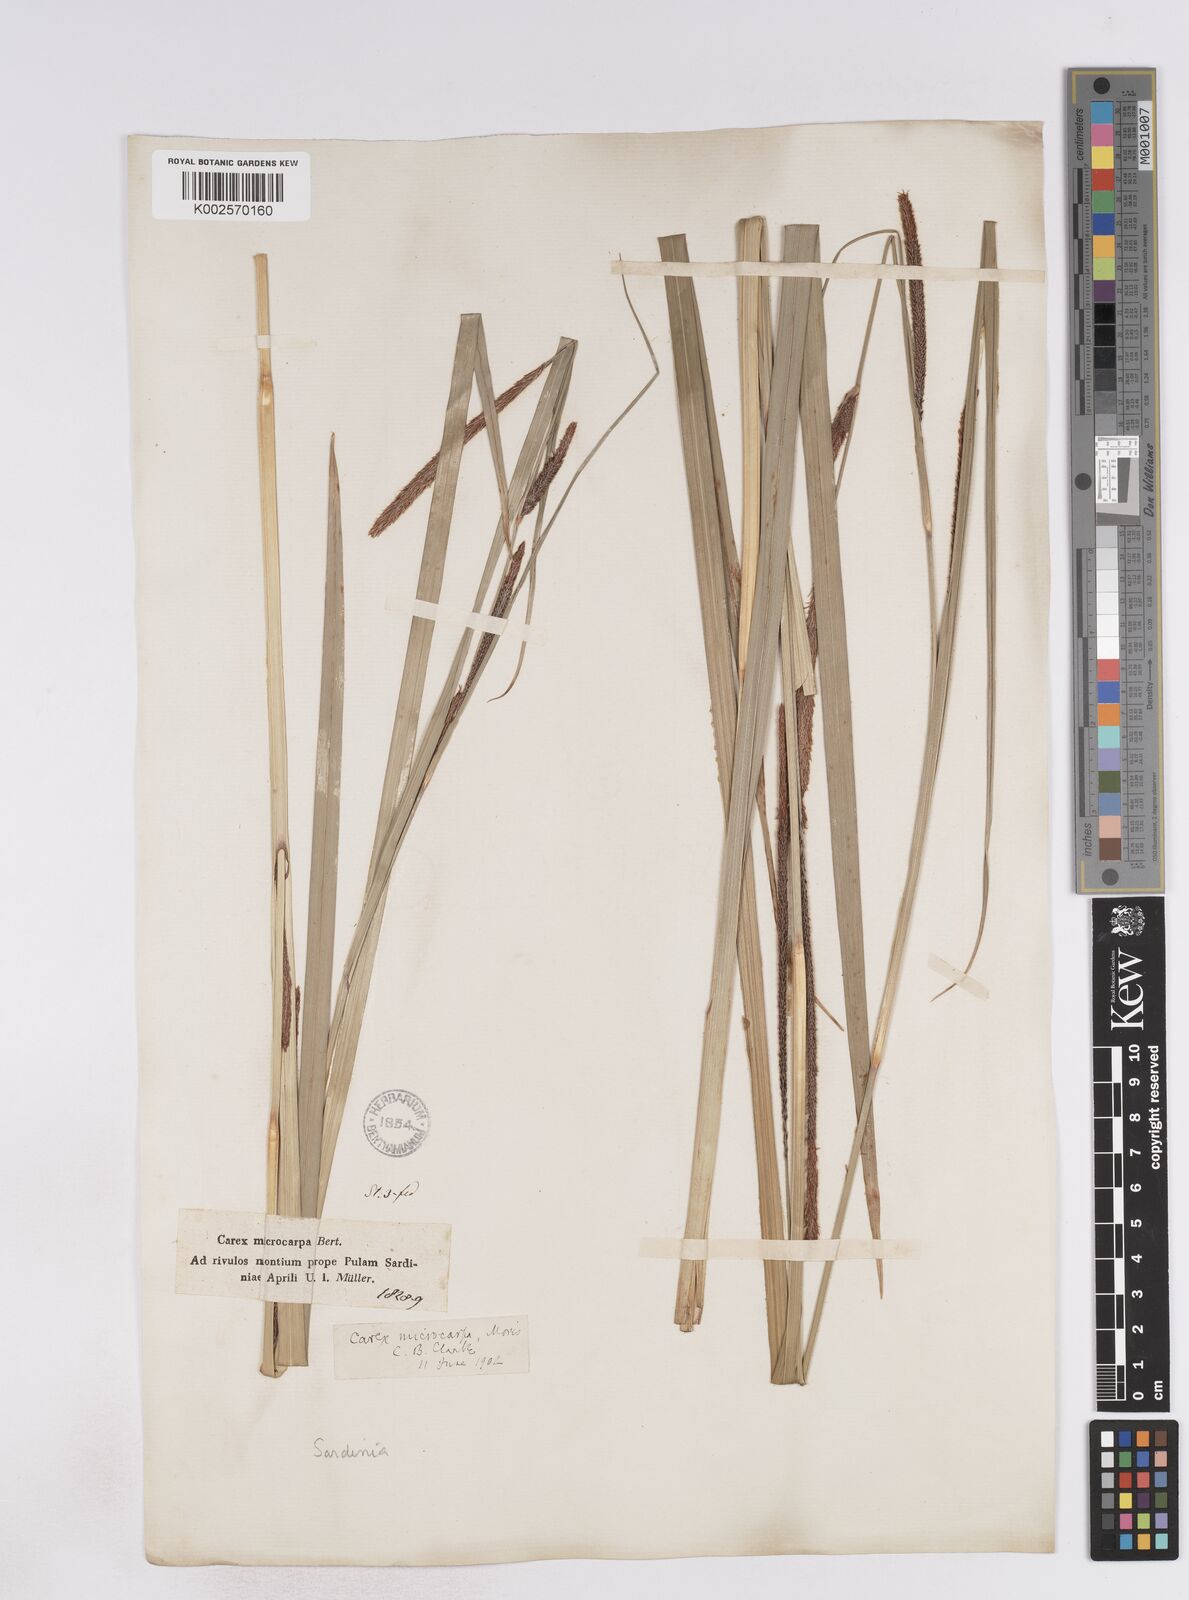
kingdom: Plantae
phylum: Tracheophyta
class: Liliopsida
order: Poales
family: Cyperaceae
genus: Carex
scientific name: Carex microcarpa
